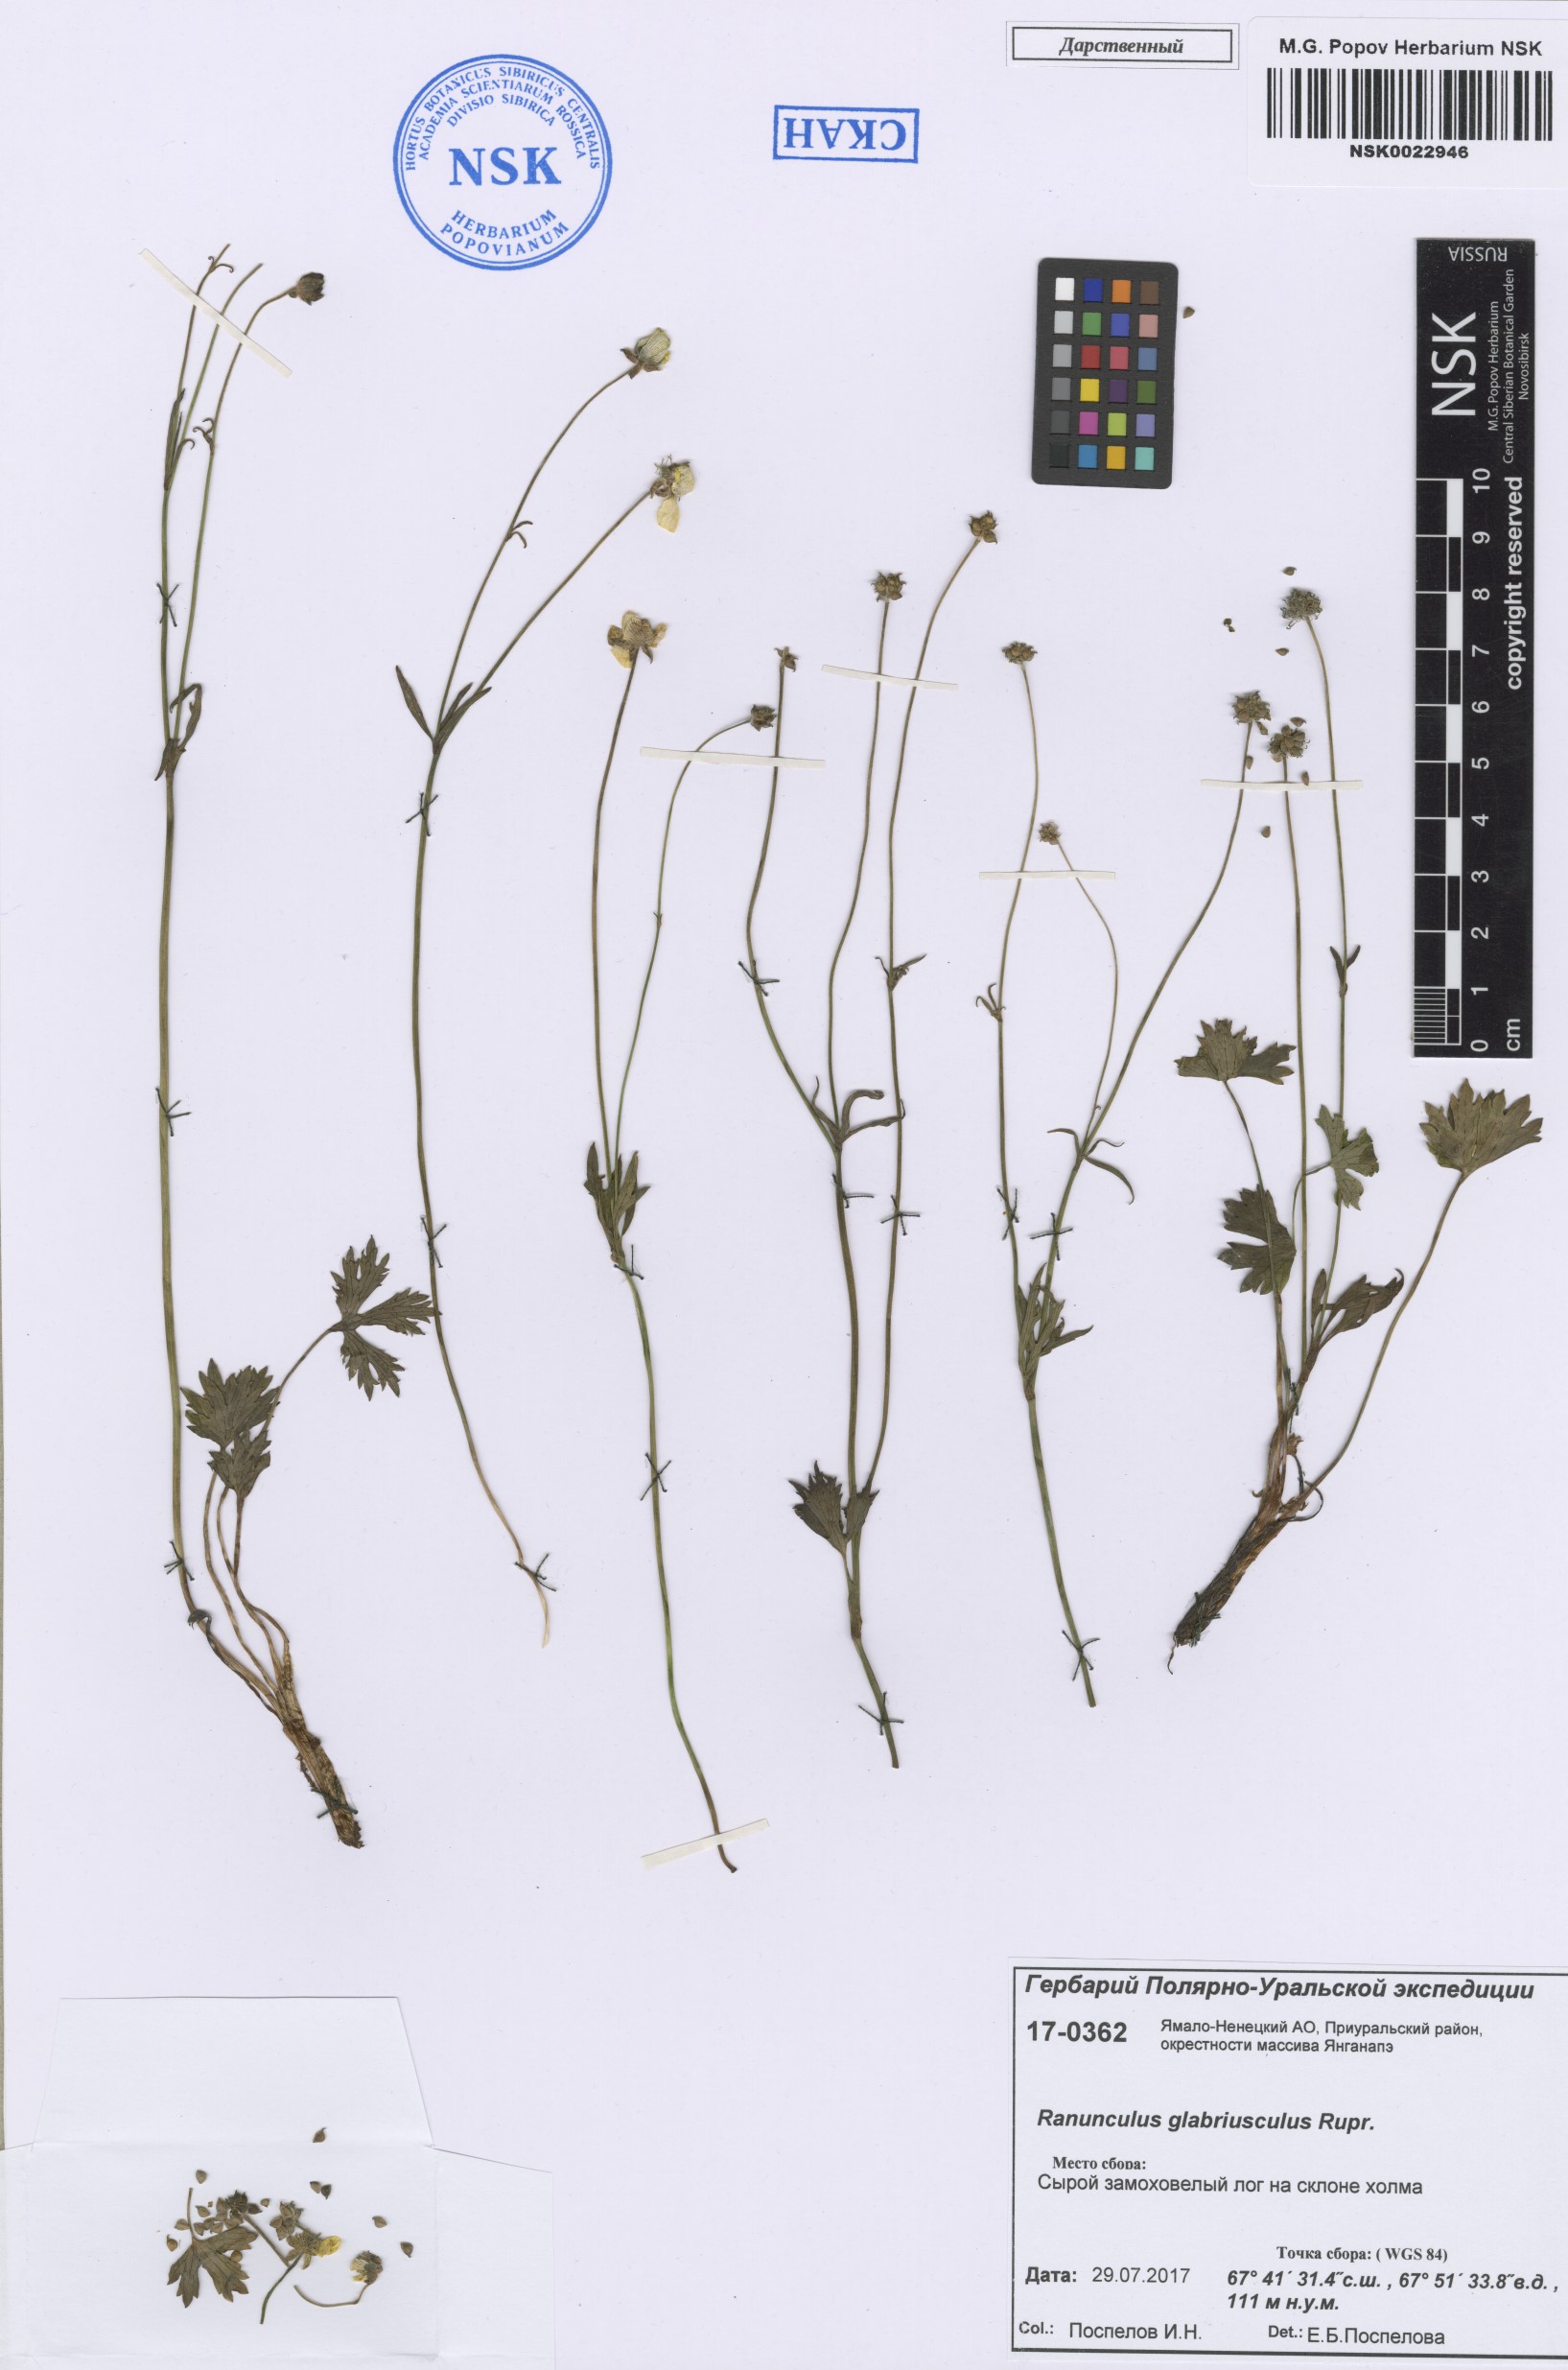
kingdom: Plantae
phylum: Tracheophyta
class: Magnoliopsida
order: Ranunculales
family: Ranunculaceae
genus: Ranunculus
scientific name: Ranunculus propinquus
